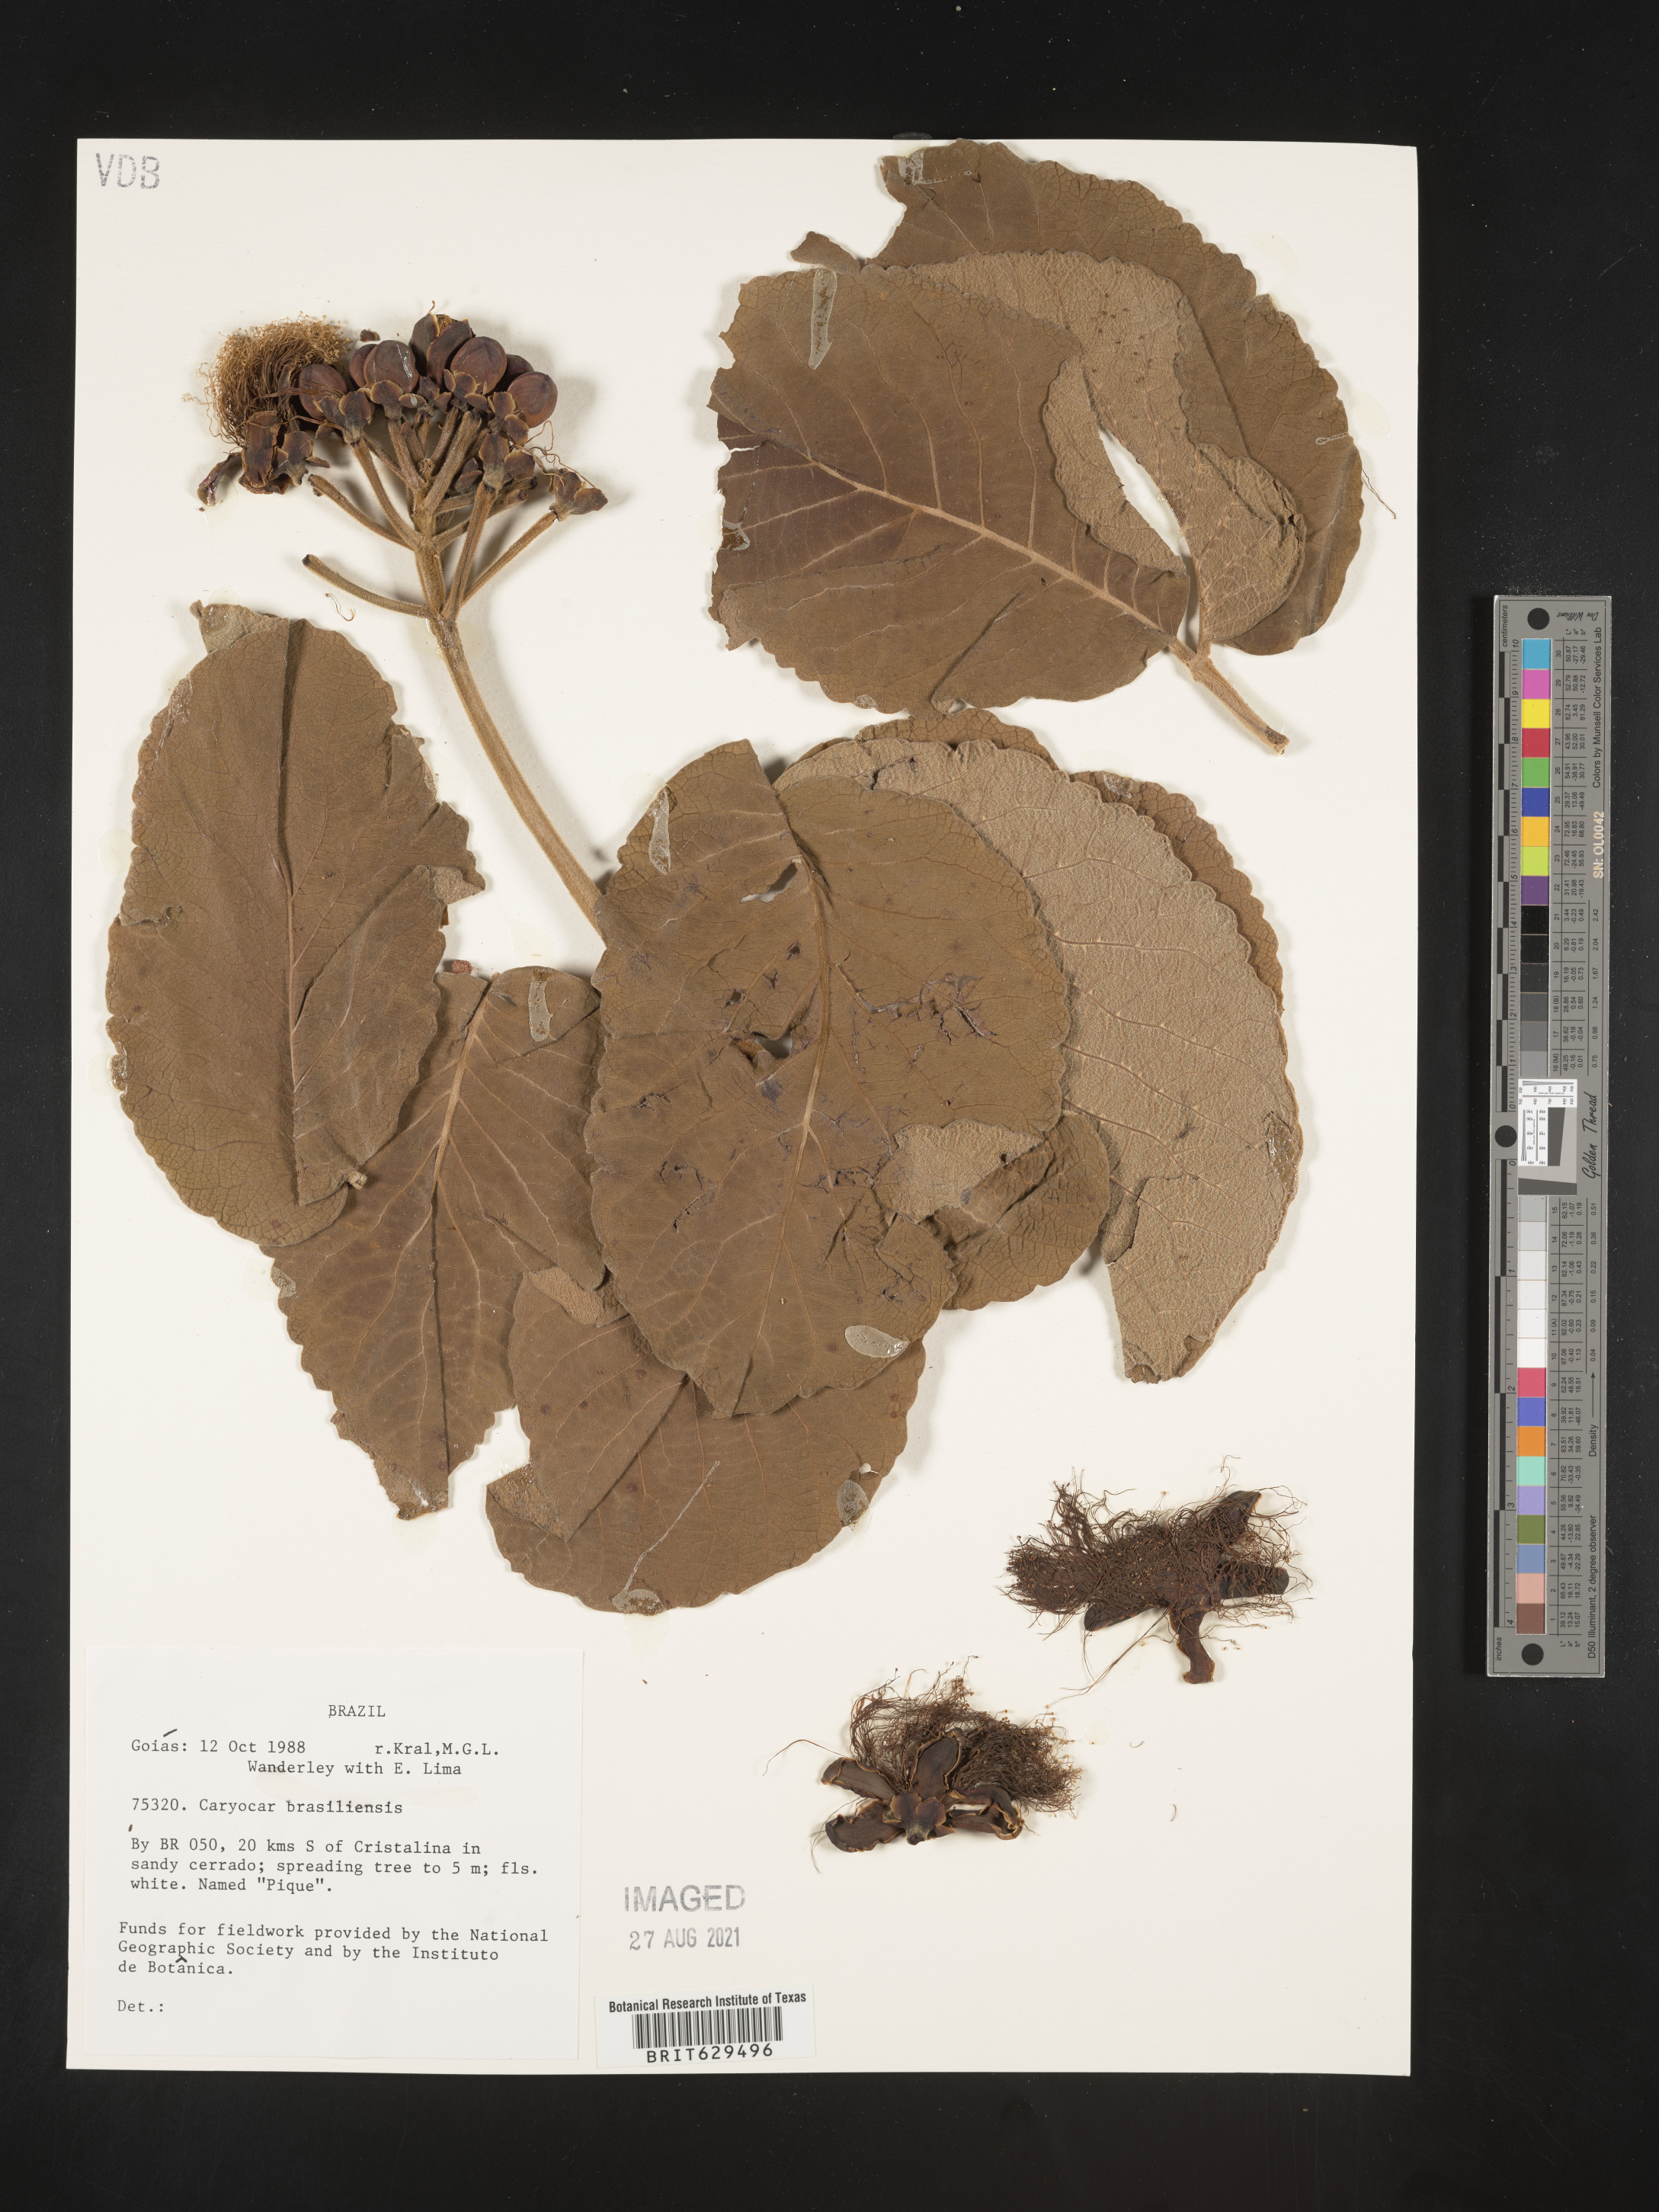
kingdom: Plantae
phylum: Tracheophyta
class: Magnoliopsida
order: Malpighiales
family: Caryocaraceae
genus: Caryocar
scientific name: Caryocar brasiliense
